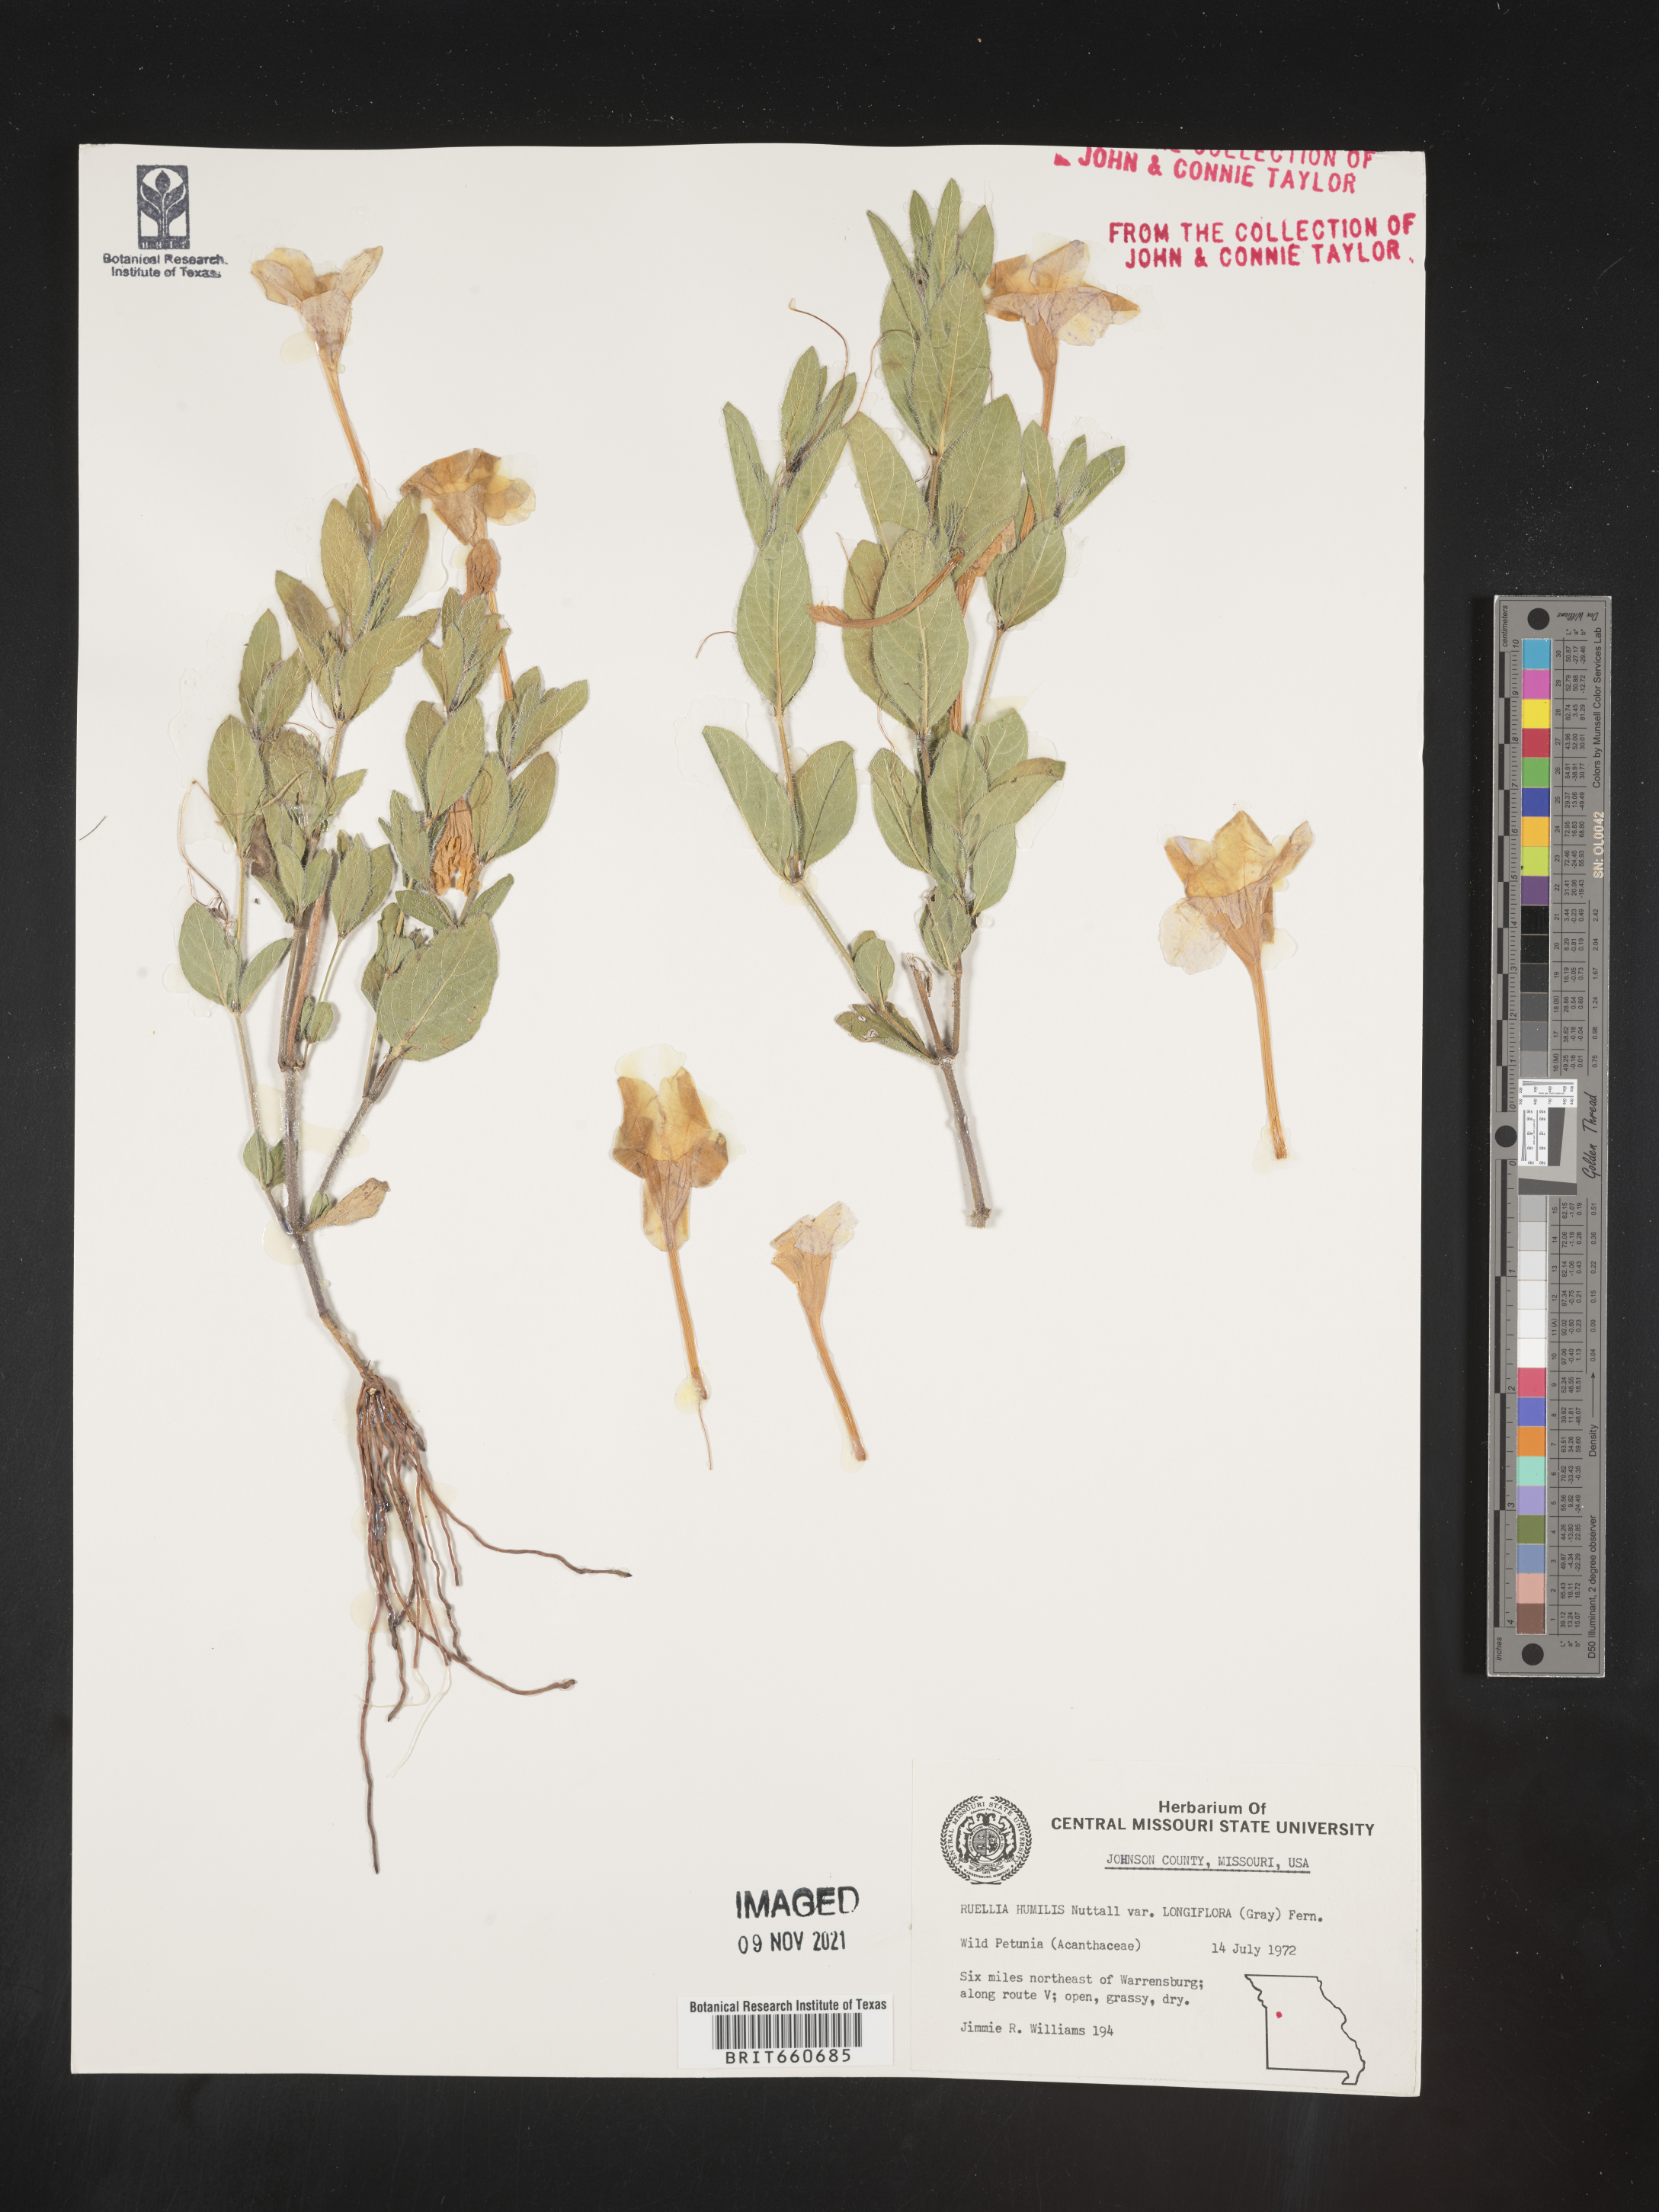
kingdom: Plantae
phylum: Tracheophyta
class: Magnoliopsida
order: Lamiales
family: Acanthaceae
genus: Ruellia
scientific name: Ruellia humilis
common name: Fringe-leaf ruellia
